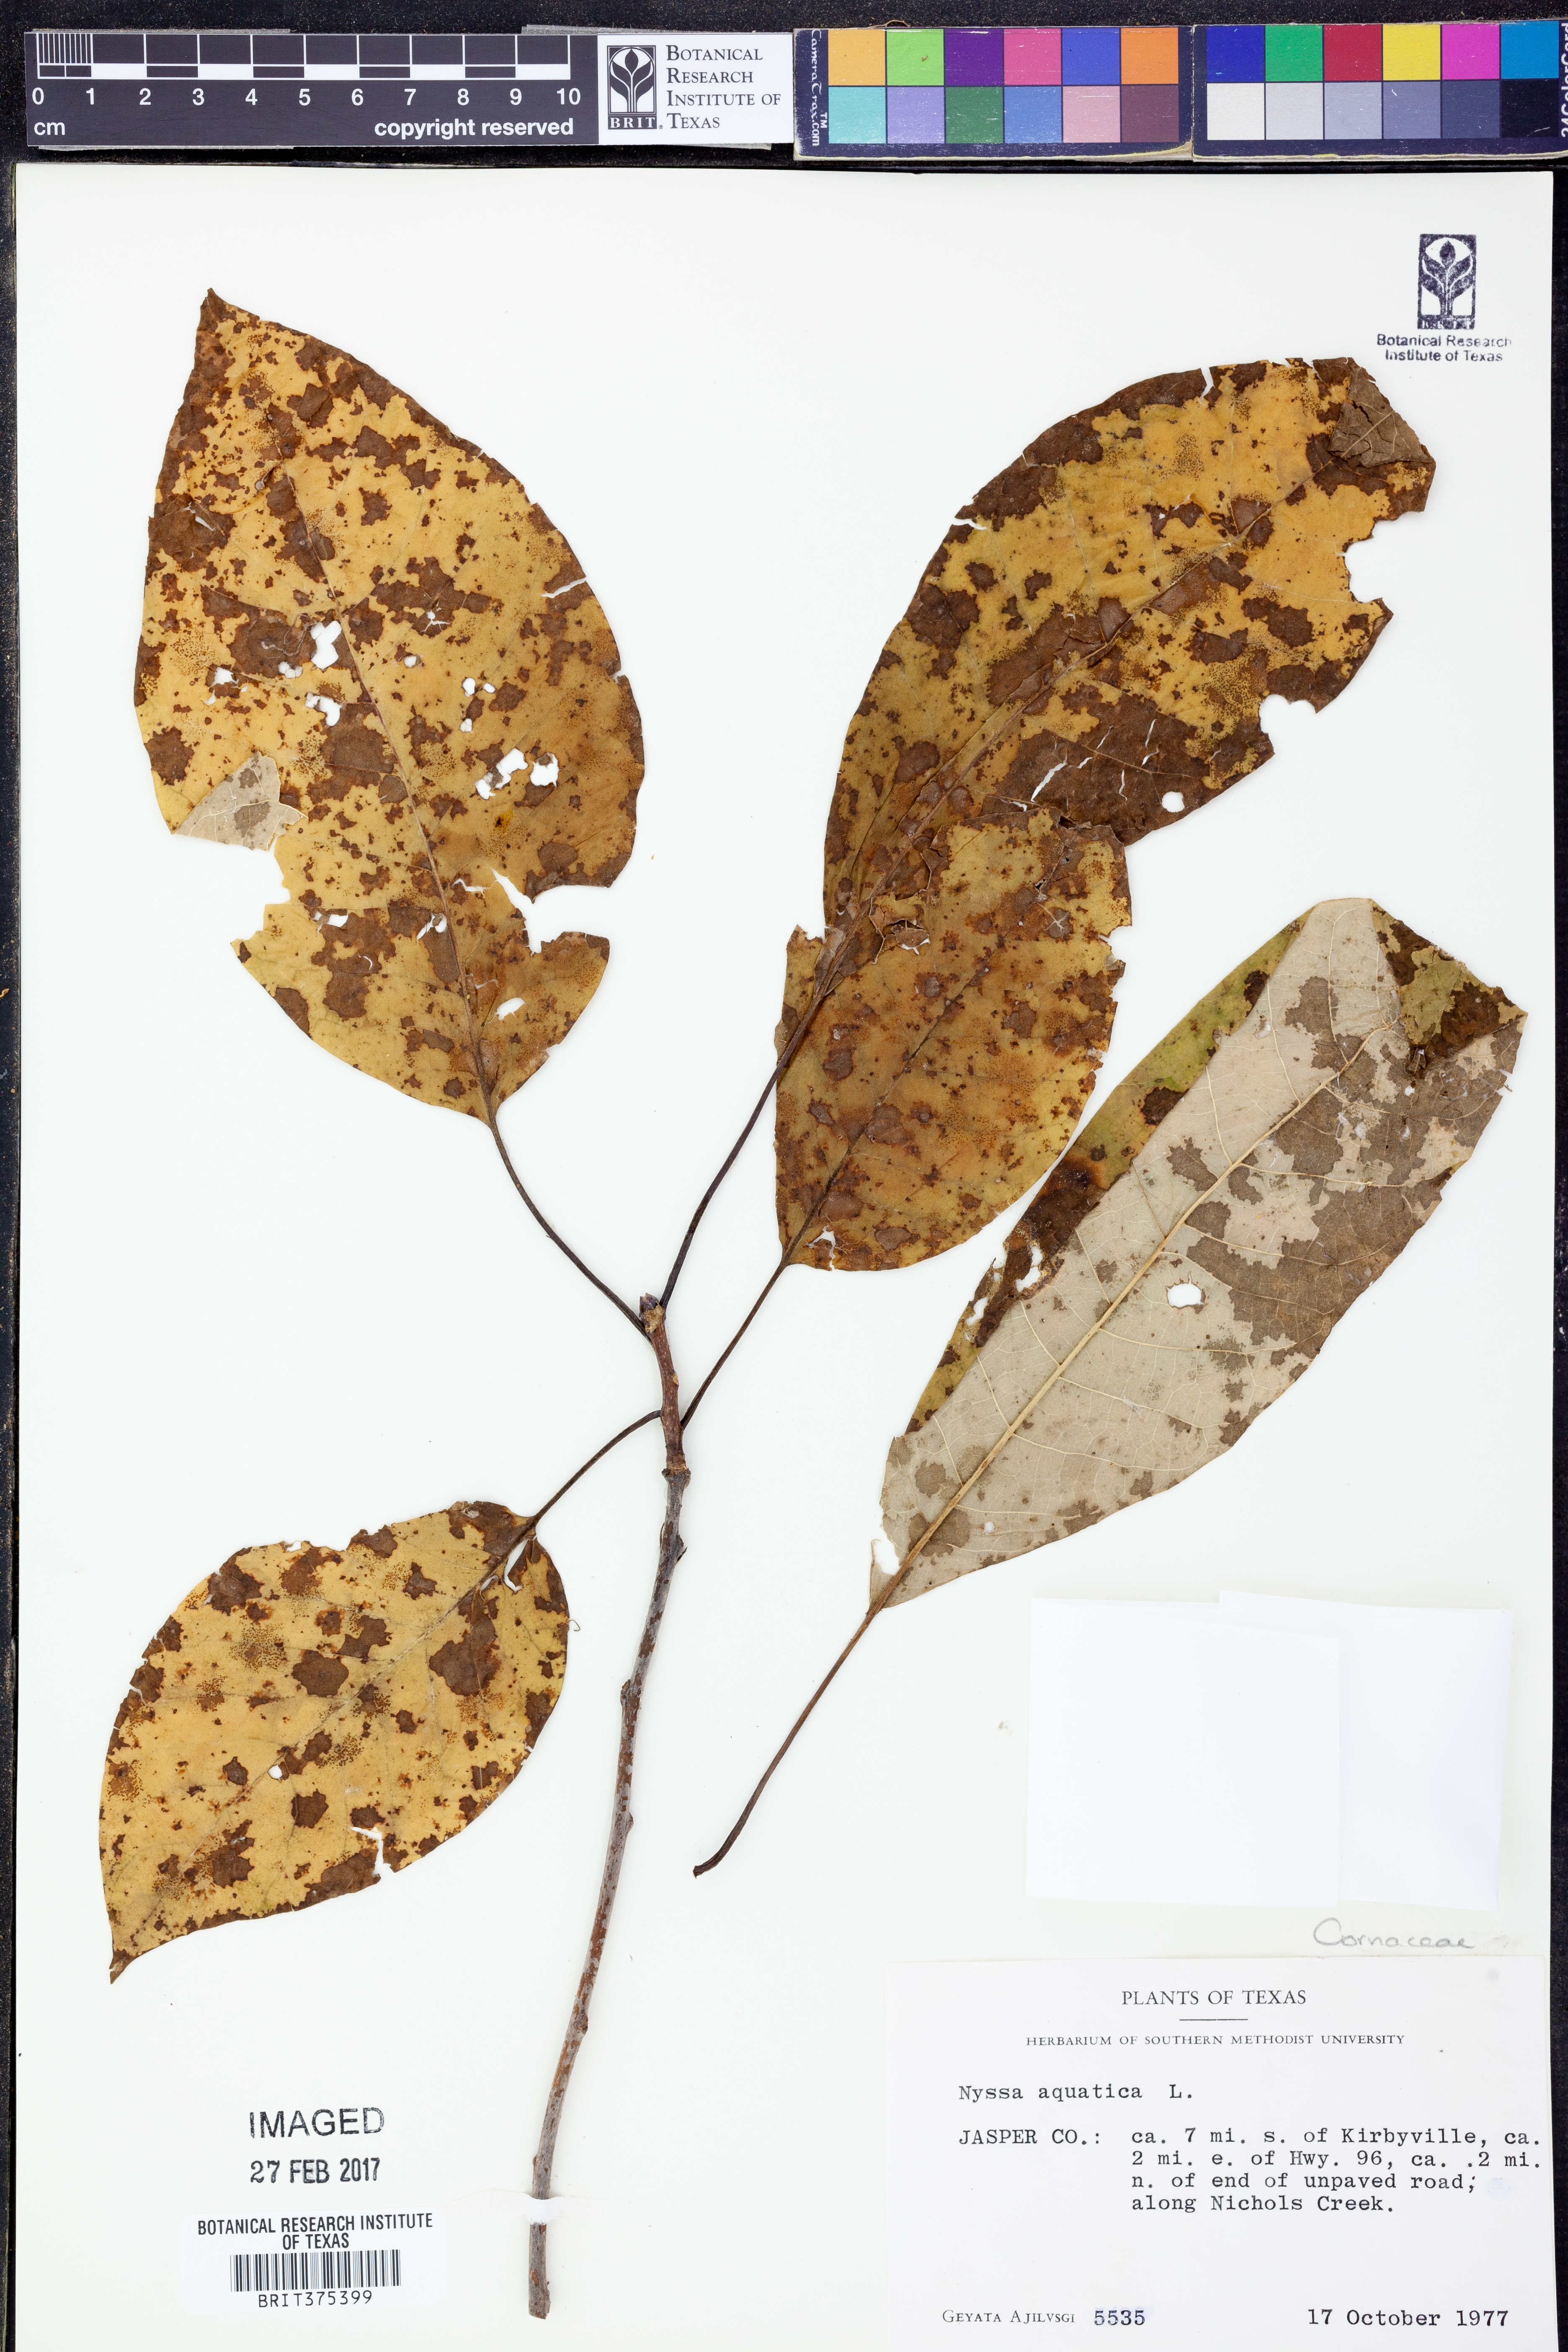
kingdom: Plantae
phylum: Tracheophyta
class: Magnoliopsida
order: Cornales
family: Nyssaceae
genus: Nyssa
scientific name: Nyssa aquatica
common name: Swamp tupelo
